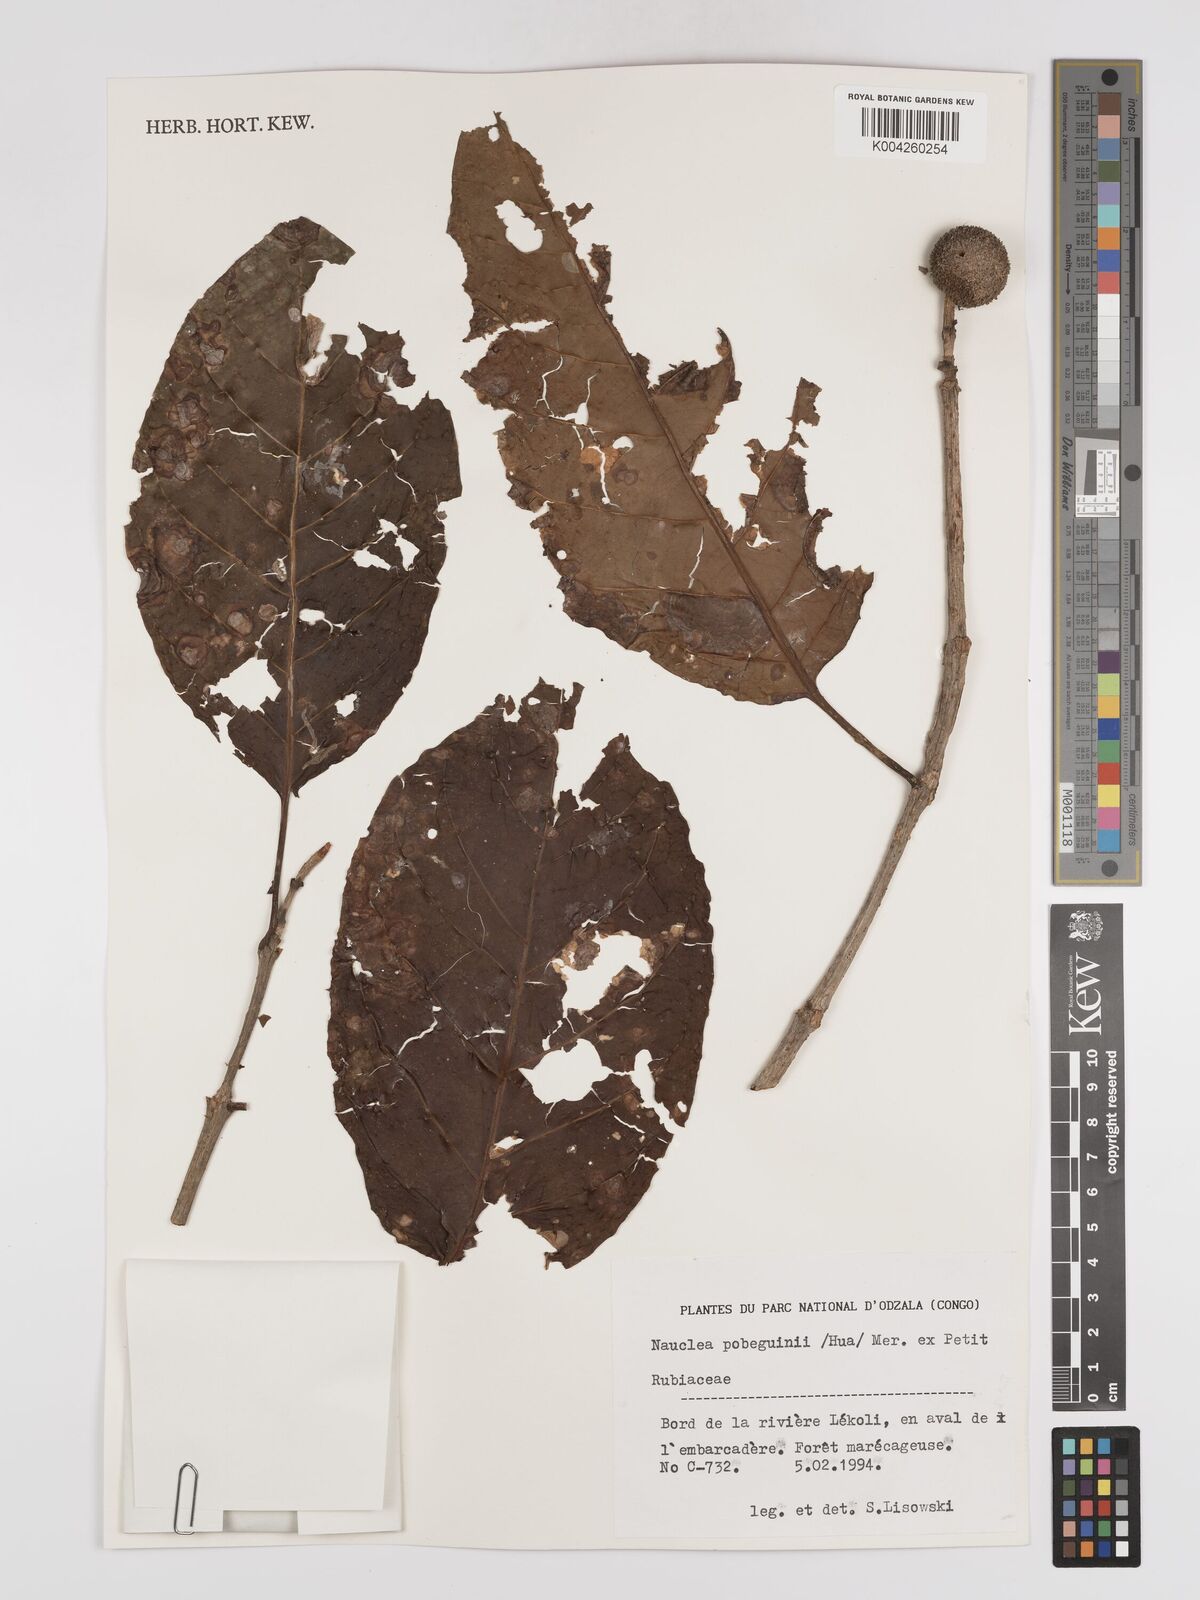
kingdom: Plantae
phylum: Tracheophyta
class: Magnoliopsida
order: Gentianales
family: Rubiaceae
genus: Nauclea
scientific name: Nauclea pobeguinii
